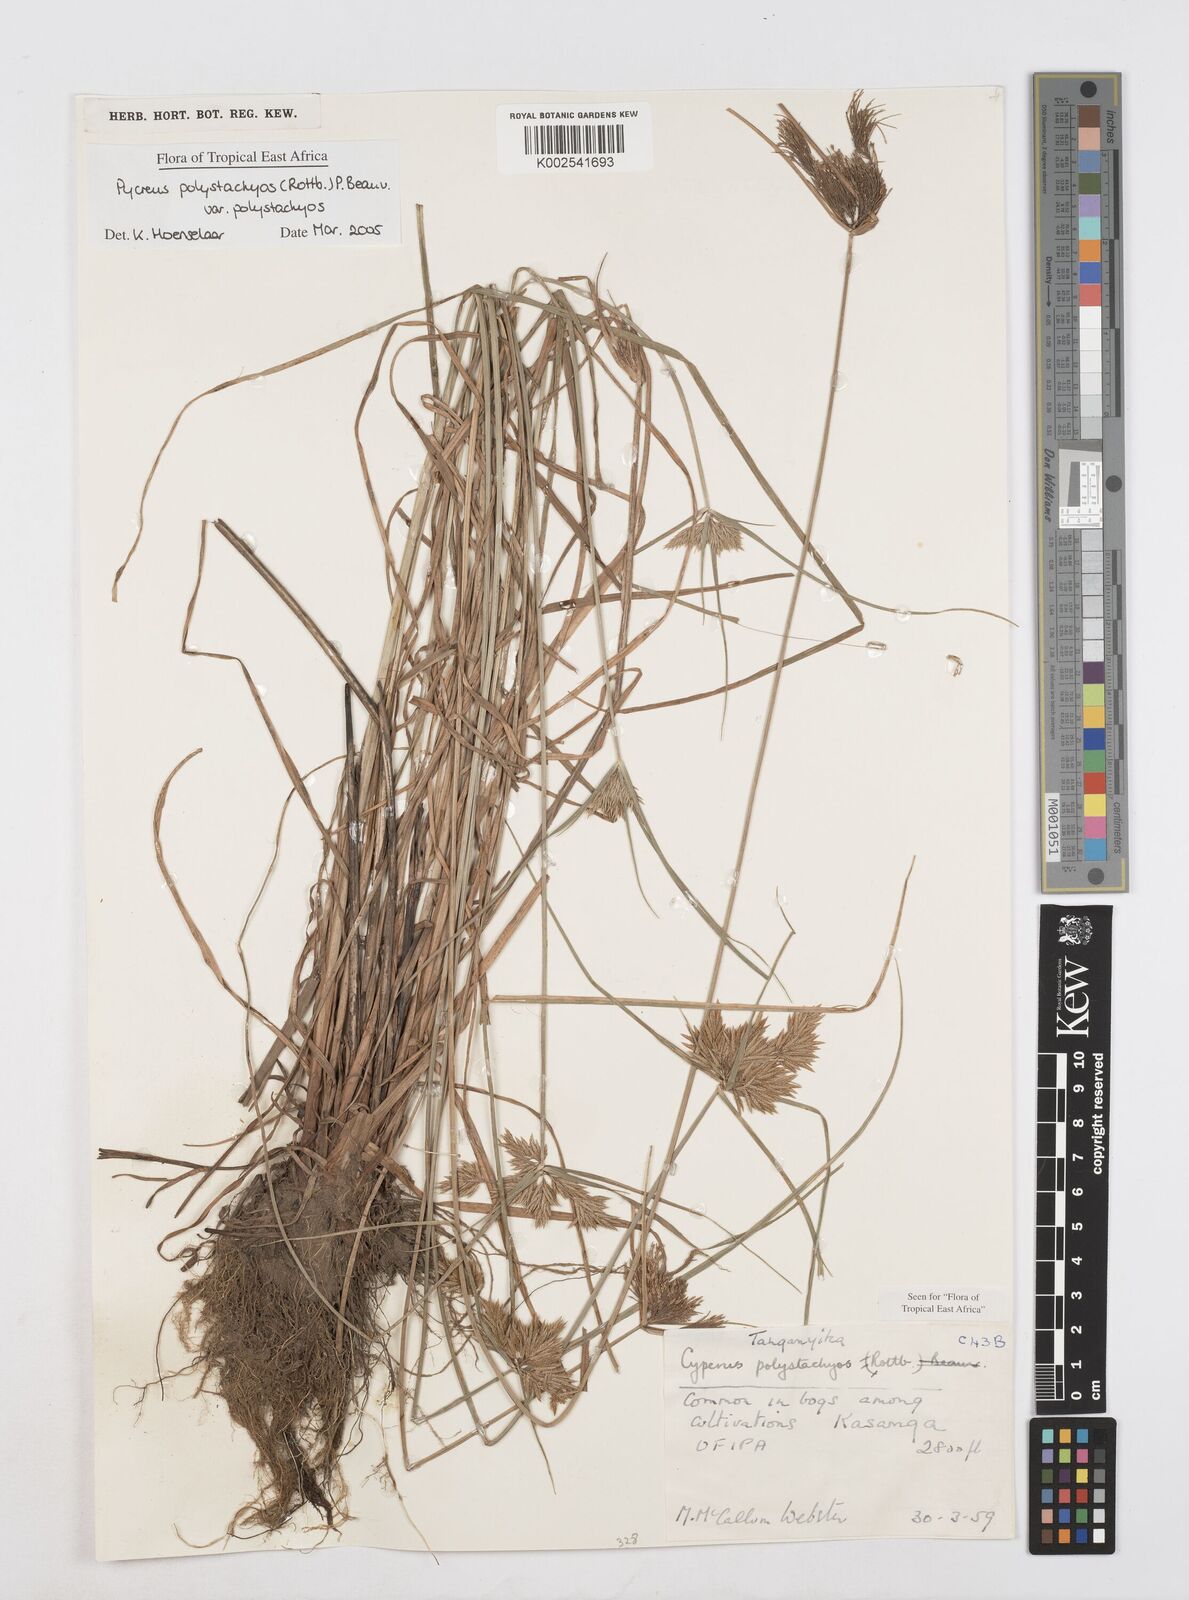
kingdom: Plantae
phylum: Tracheophyta
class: Liliopsida
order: Poales
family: Cyperaceae
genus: Cyperus
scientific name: Cyperus polystachyos
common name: Bunchy flat sedge
